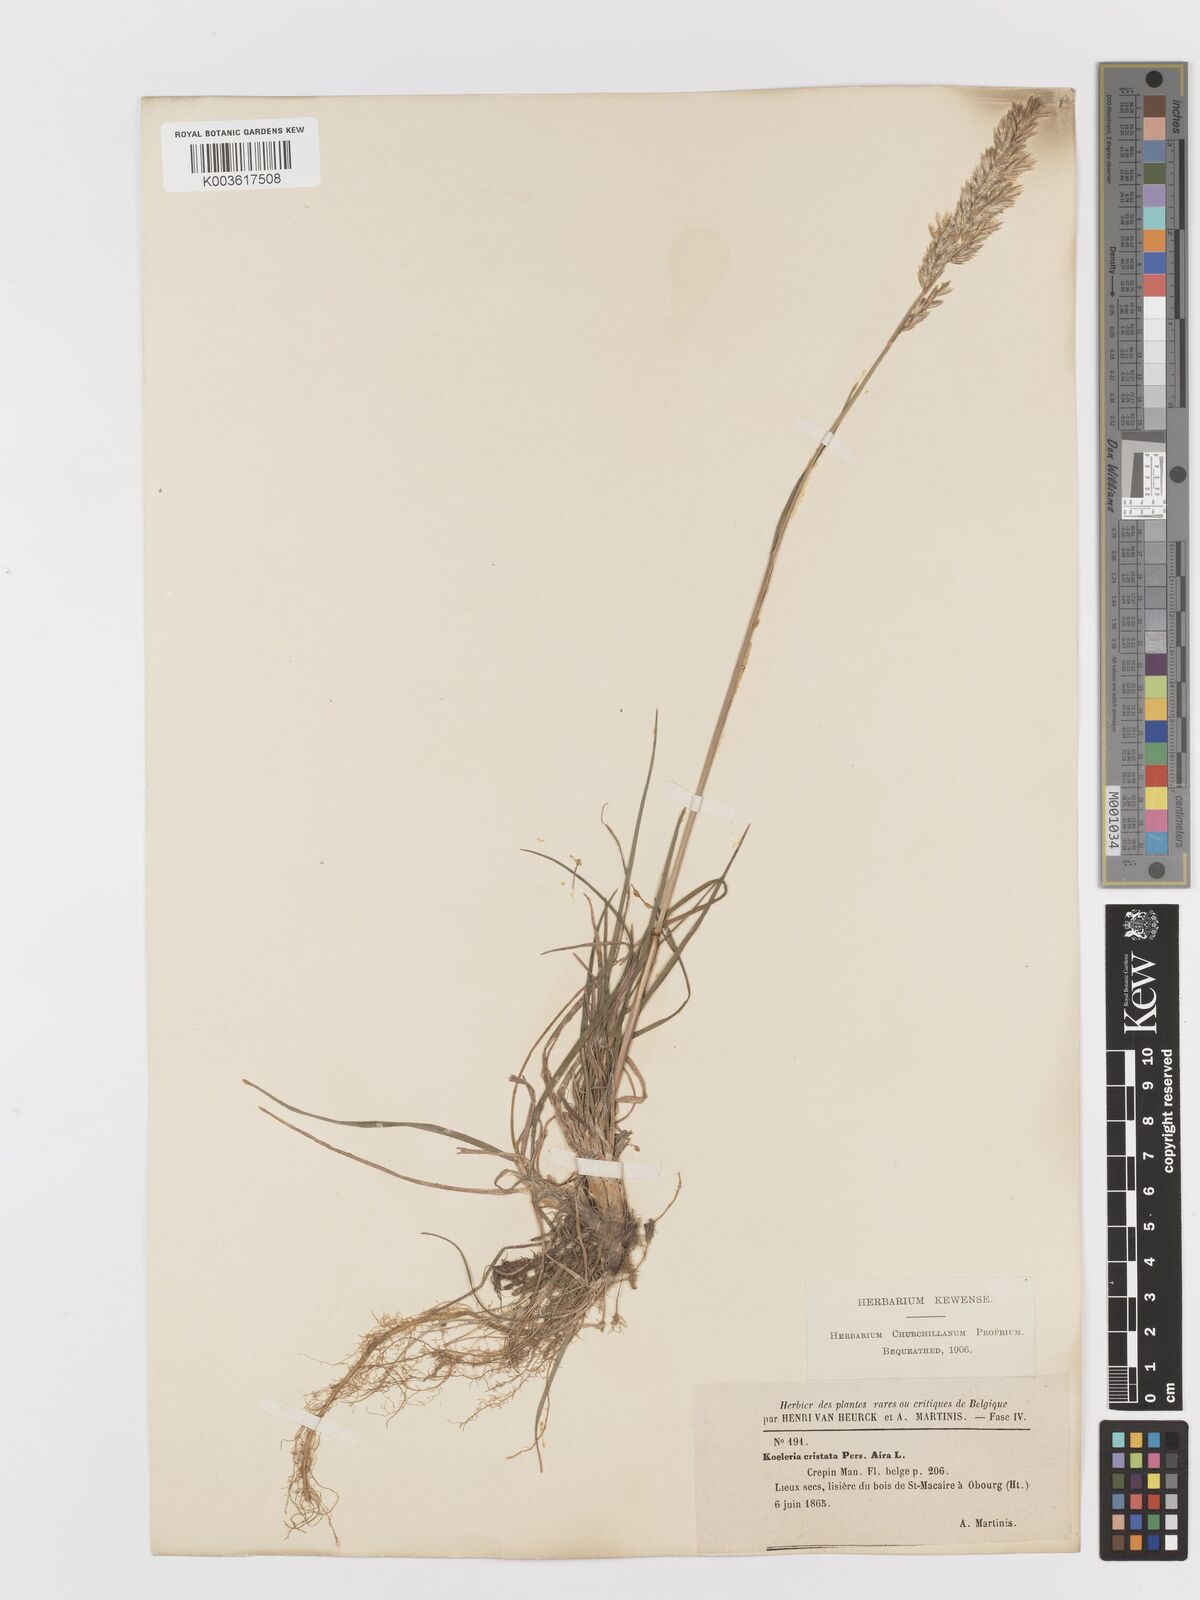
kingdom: Plantae
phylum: Tracheophyta
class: Liliopsida
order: Poales
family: Poaceae
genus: Koeleria
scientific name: Koeleria
